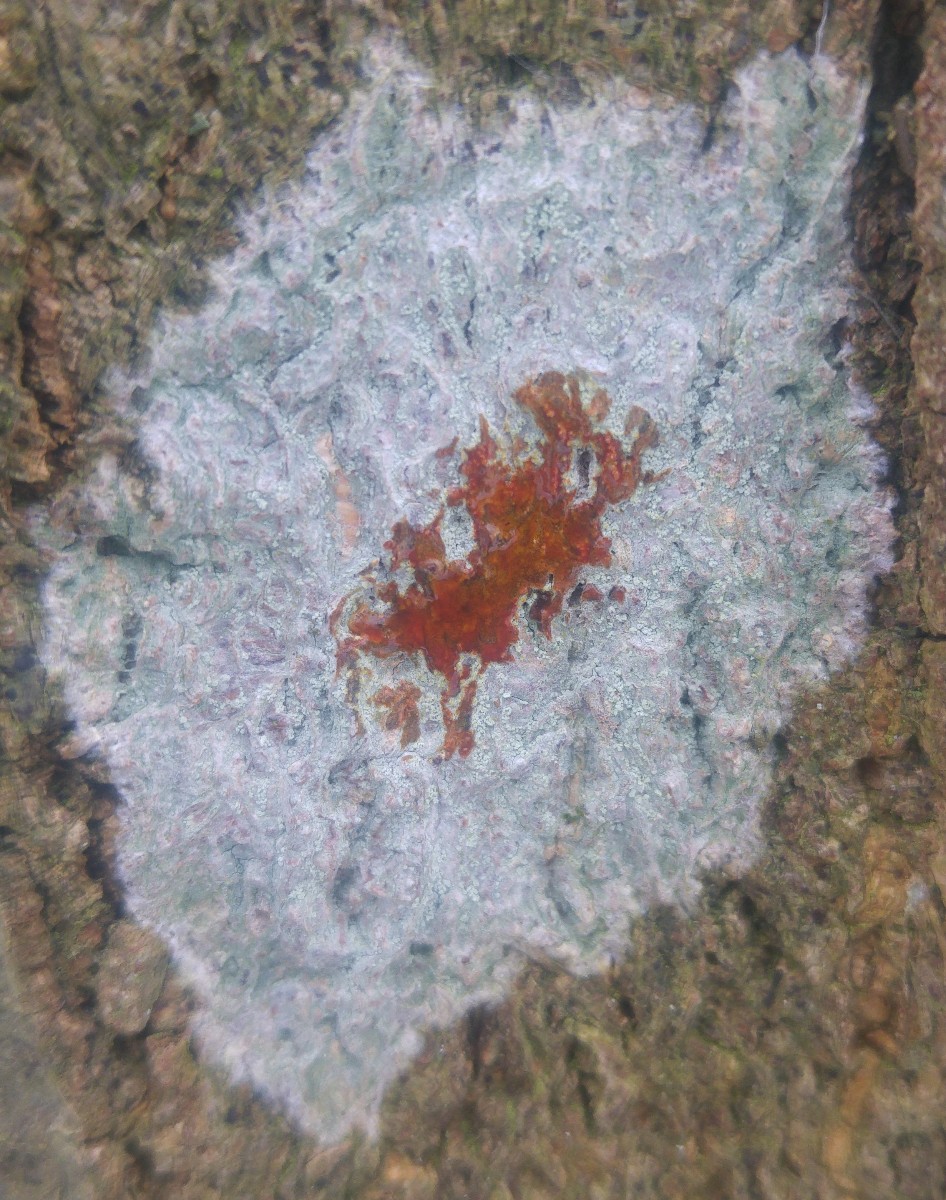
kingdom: Fungi
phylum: Ascomycota
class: Lecanoromycetes
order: Ostropales
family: Phlyctidaceae
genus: Phlyctis
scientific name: Phlyctis argena
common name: almindelig sølvlav
